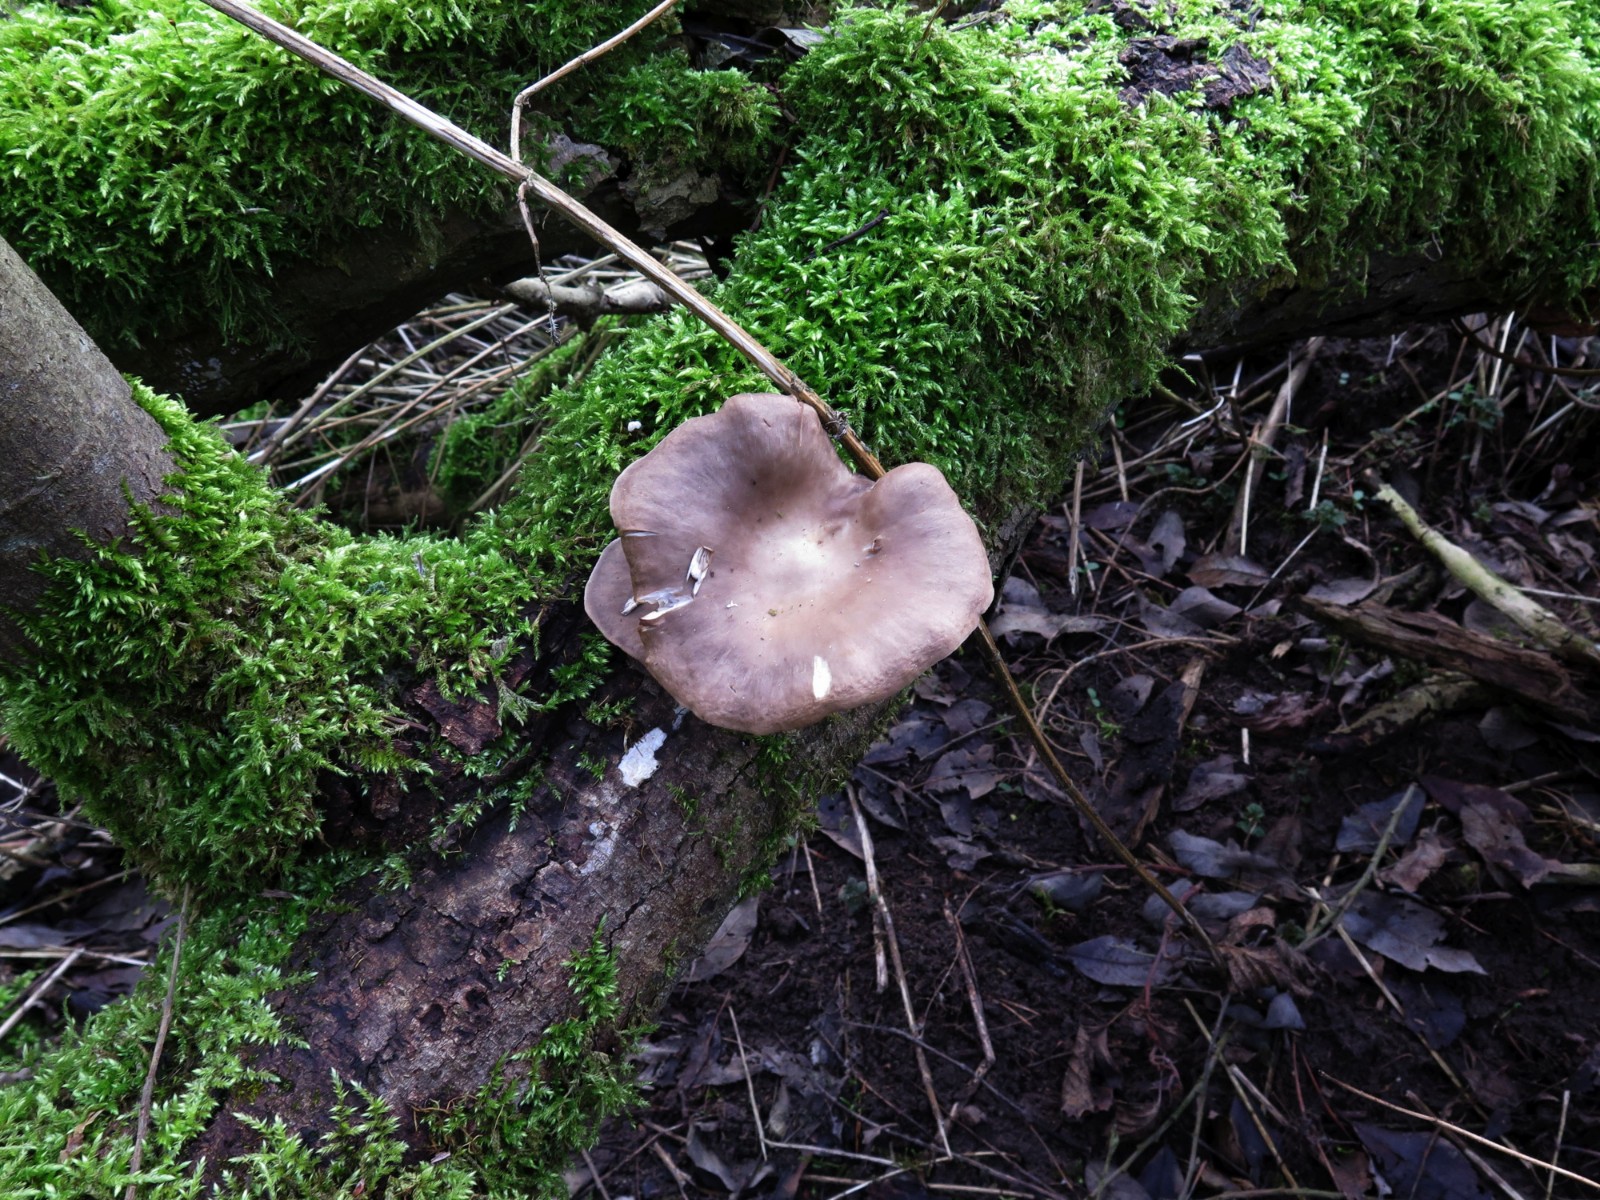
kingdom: Fungi
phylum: Basidiomycota
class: Agaricomycetes
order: Agaricales
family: Pleurotaceae
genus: Pleurotus
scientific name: Pleurotus ostreatus
